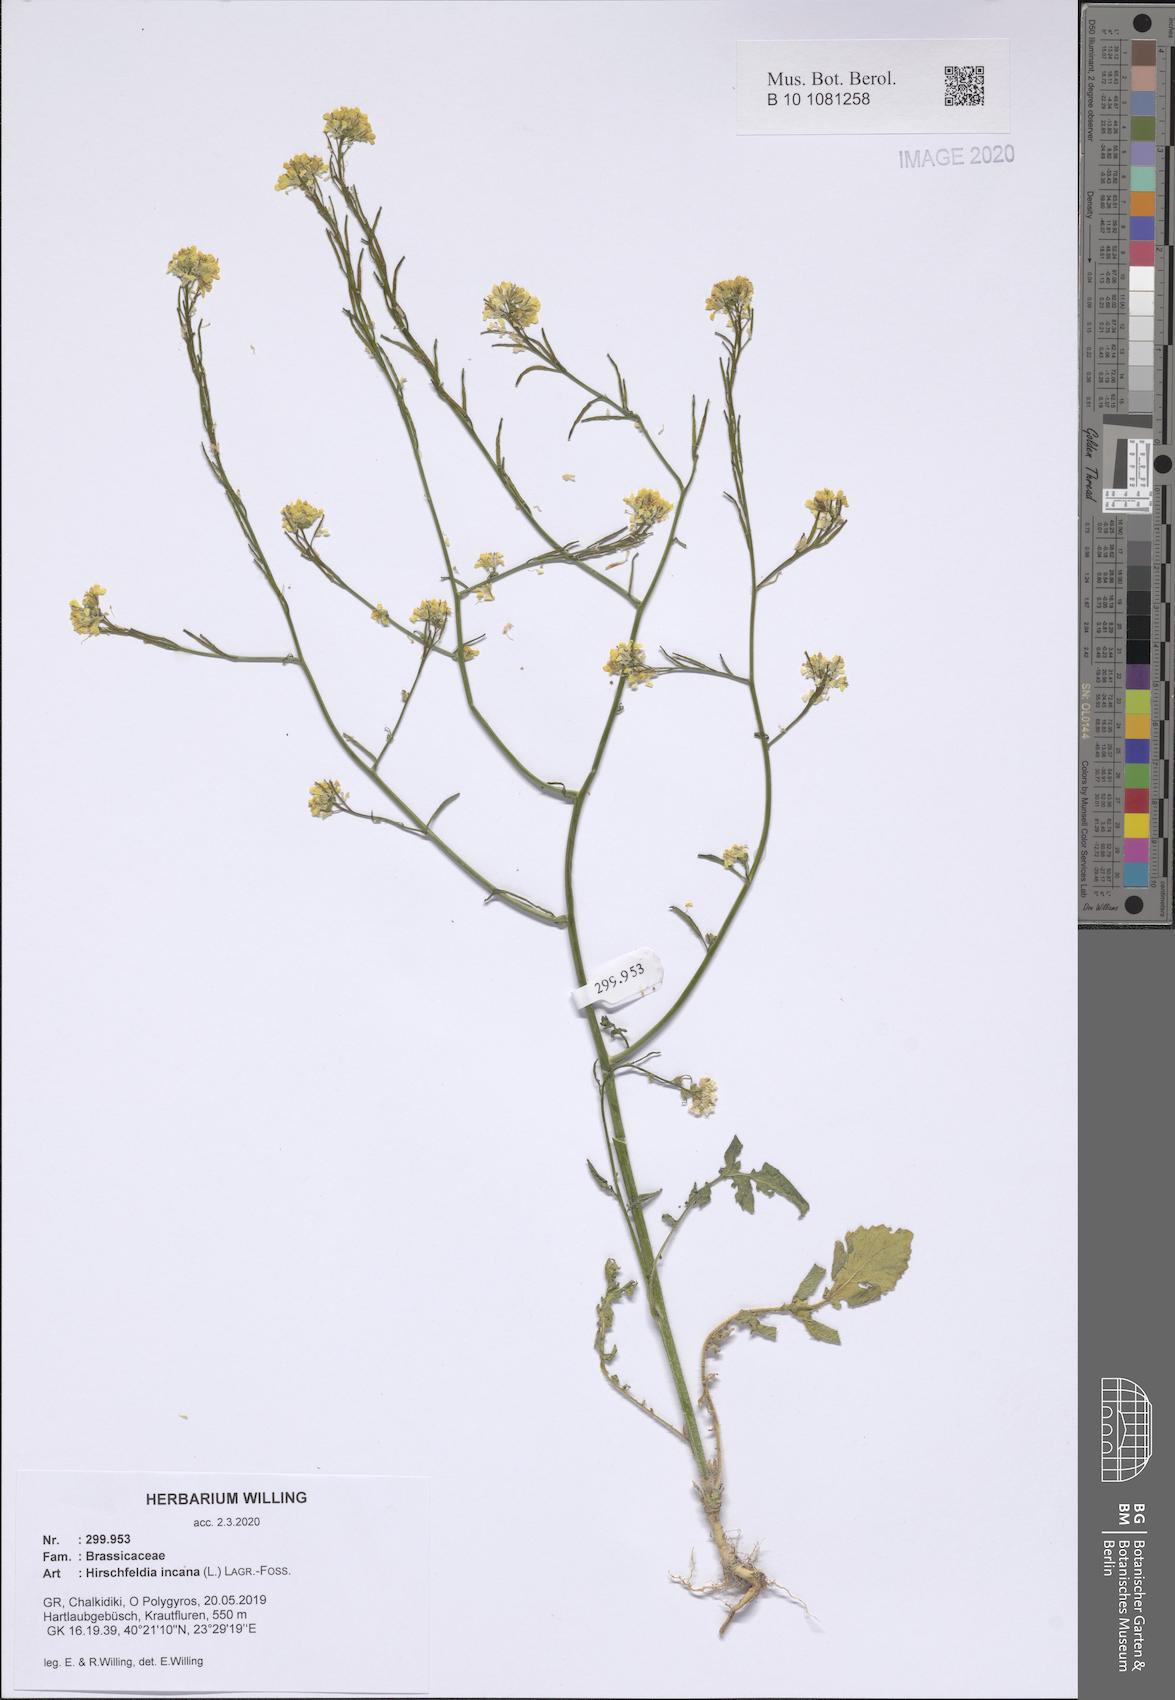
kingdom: Plantae
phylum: Tracheophyta
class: Magnoliopsida
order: Brassicales
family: Brassicaceae
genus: Hirschfeldia
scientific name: Hirschfeldia incana
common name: Hoary mustard
